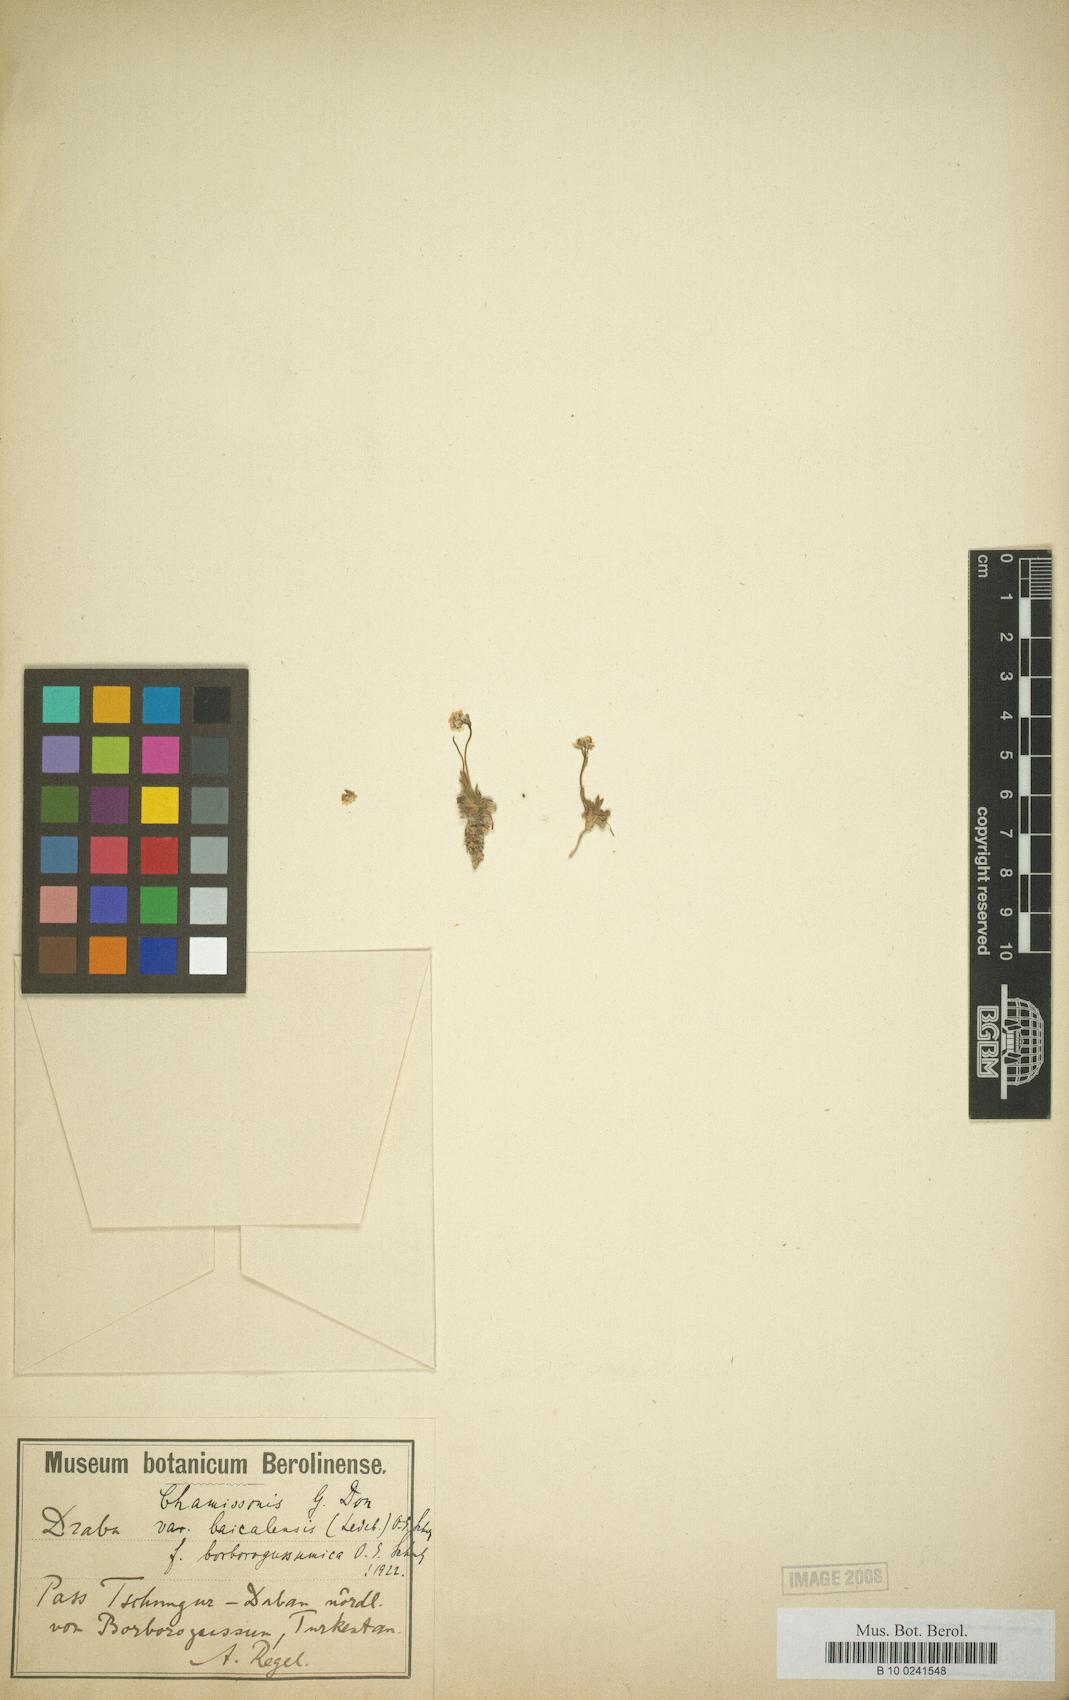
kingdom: Plantae
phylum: Tracheophyta
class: Magnoliopsida
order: Brassicales
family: Brassicaceae
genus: Draba
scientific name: Draba chamissoni
